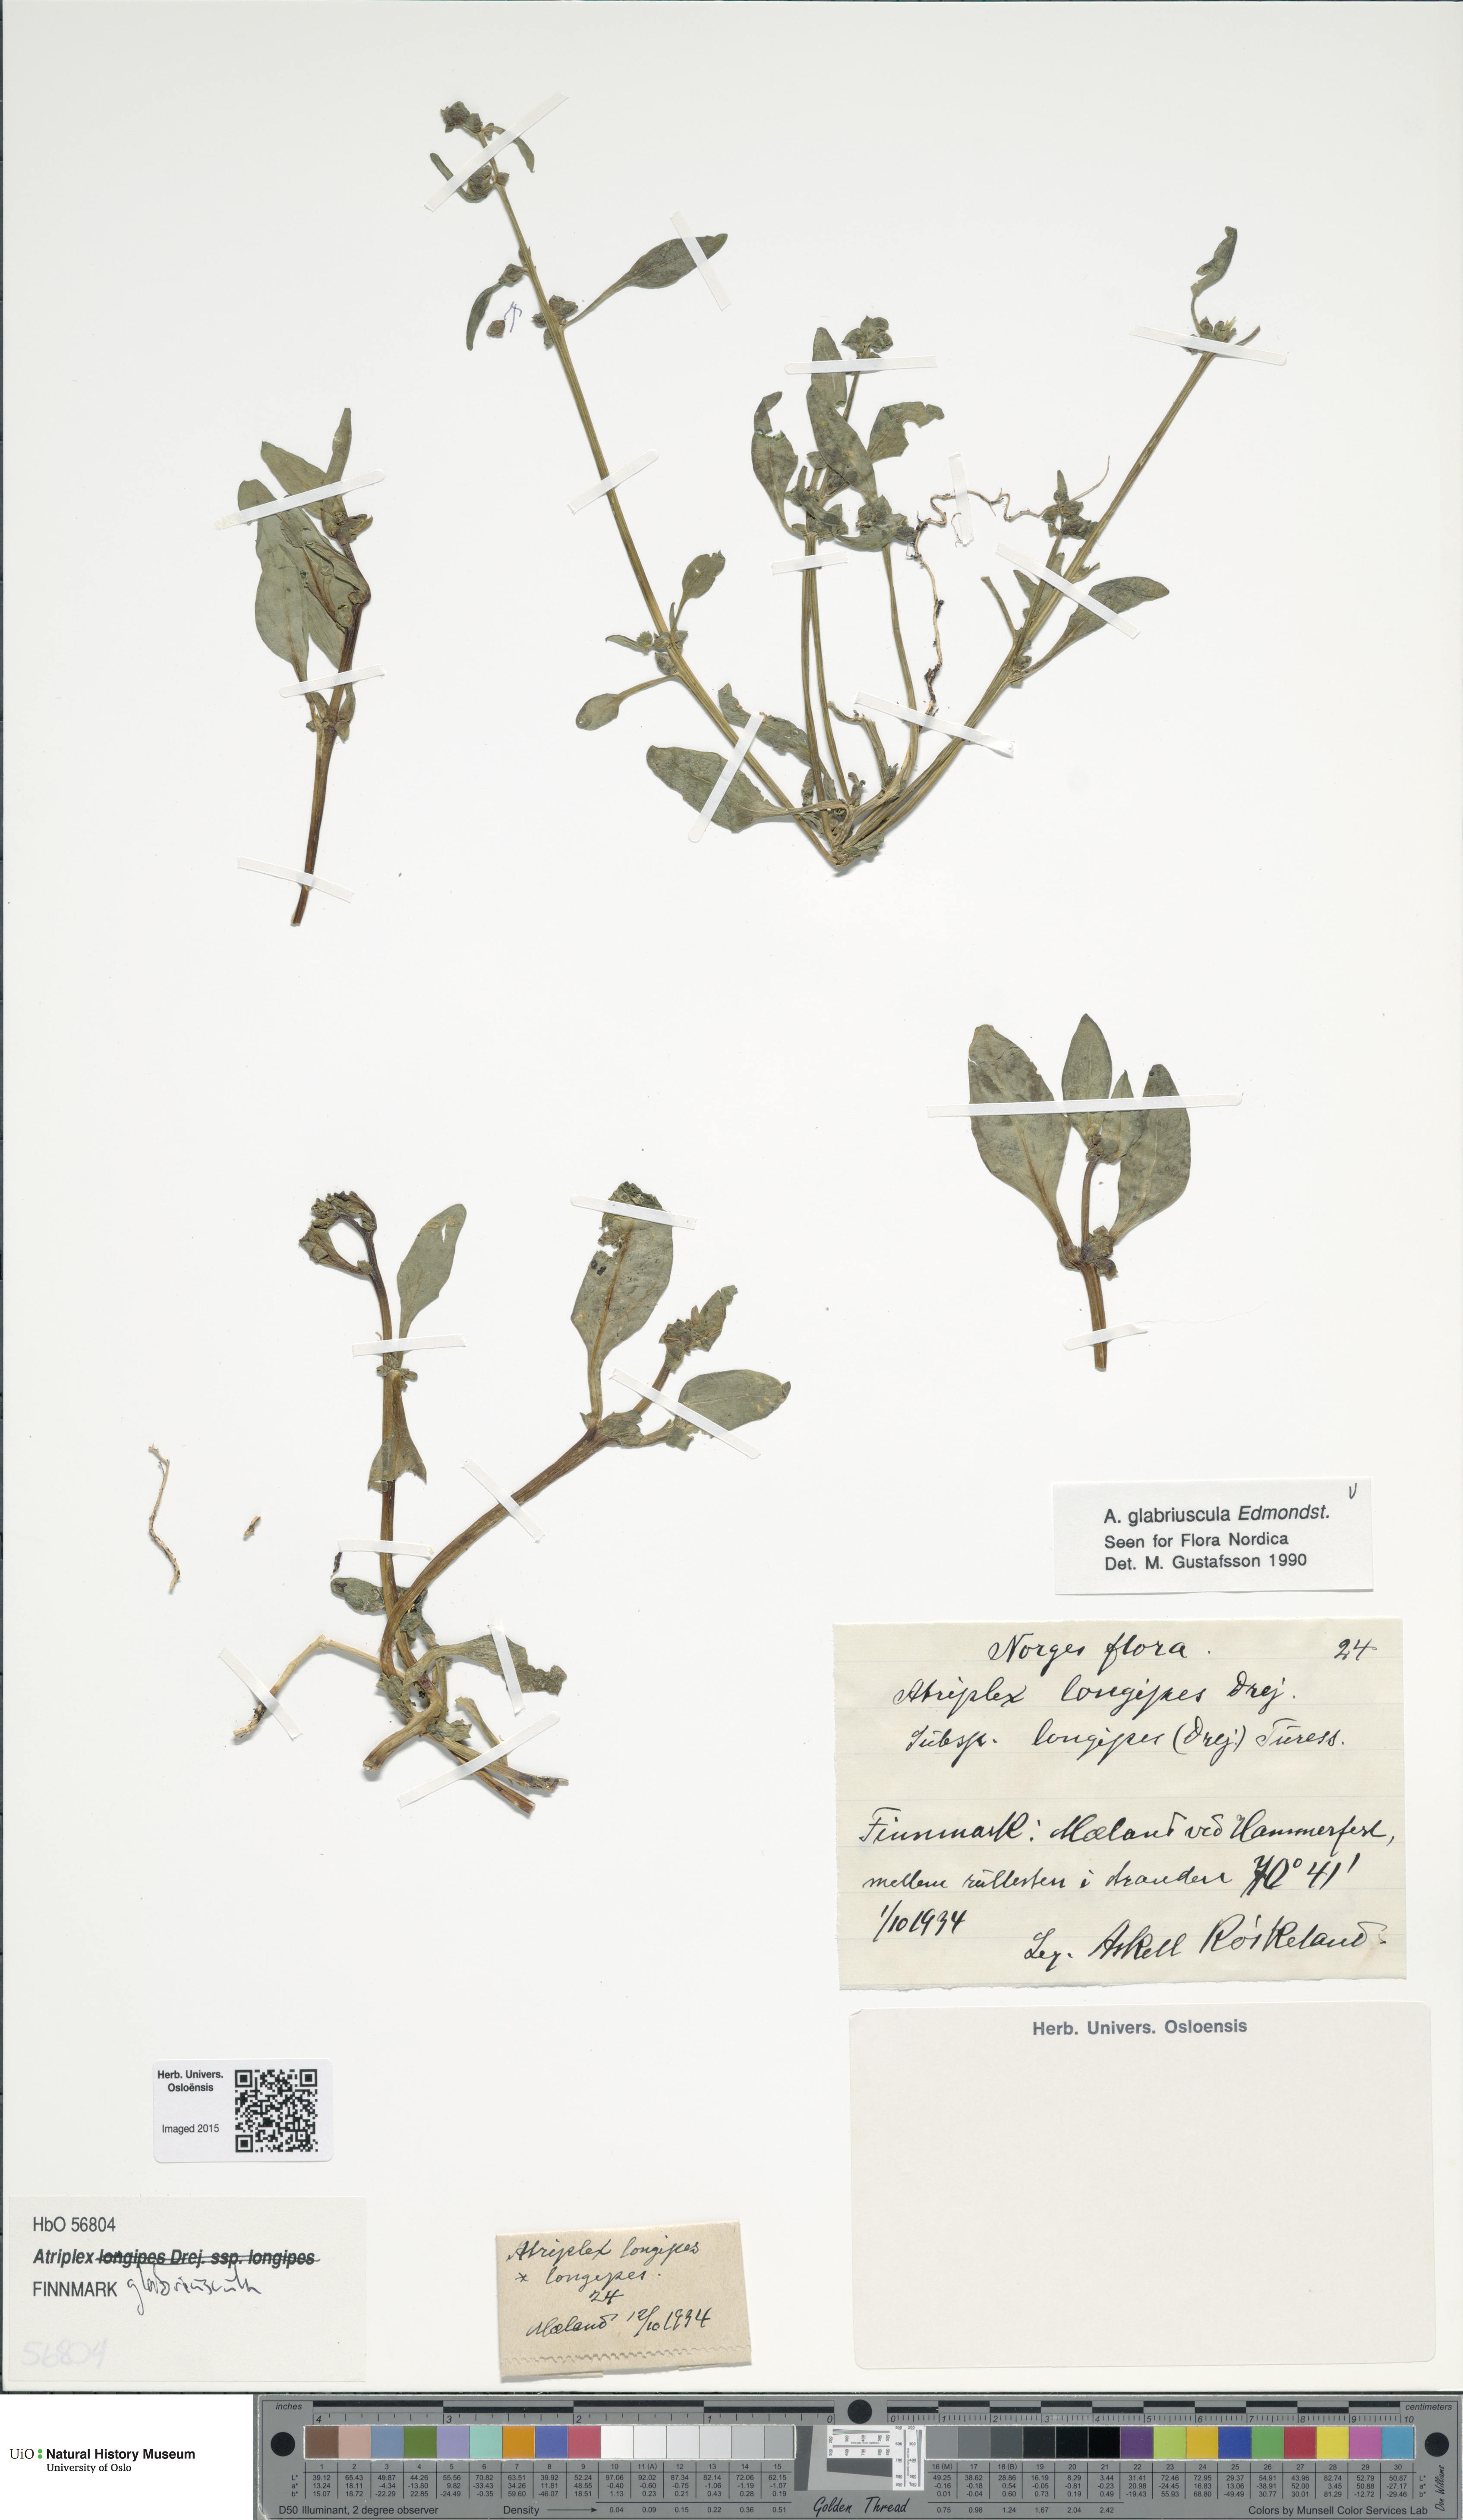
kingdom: Plantae
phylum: Tracheophyta
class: Magnoliopsida
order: Caryophyllales
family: Amaranthaceae
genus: Atriplex
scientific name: Atriplex glabriuscula
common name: Babington's orache
